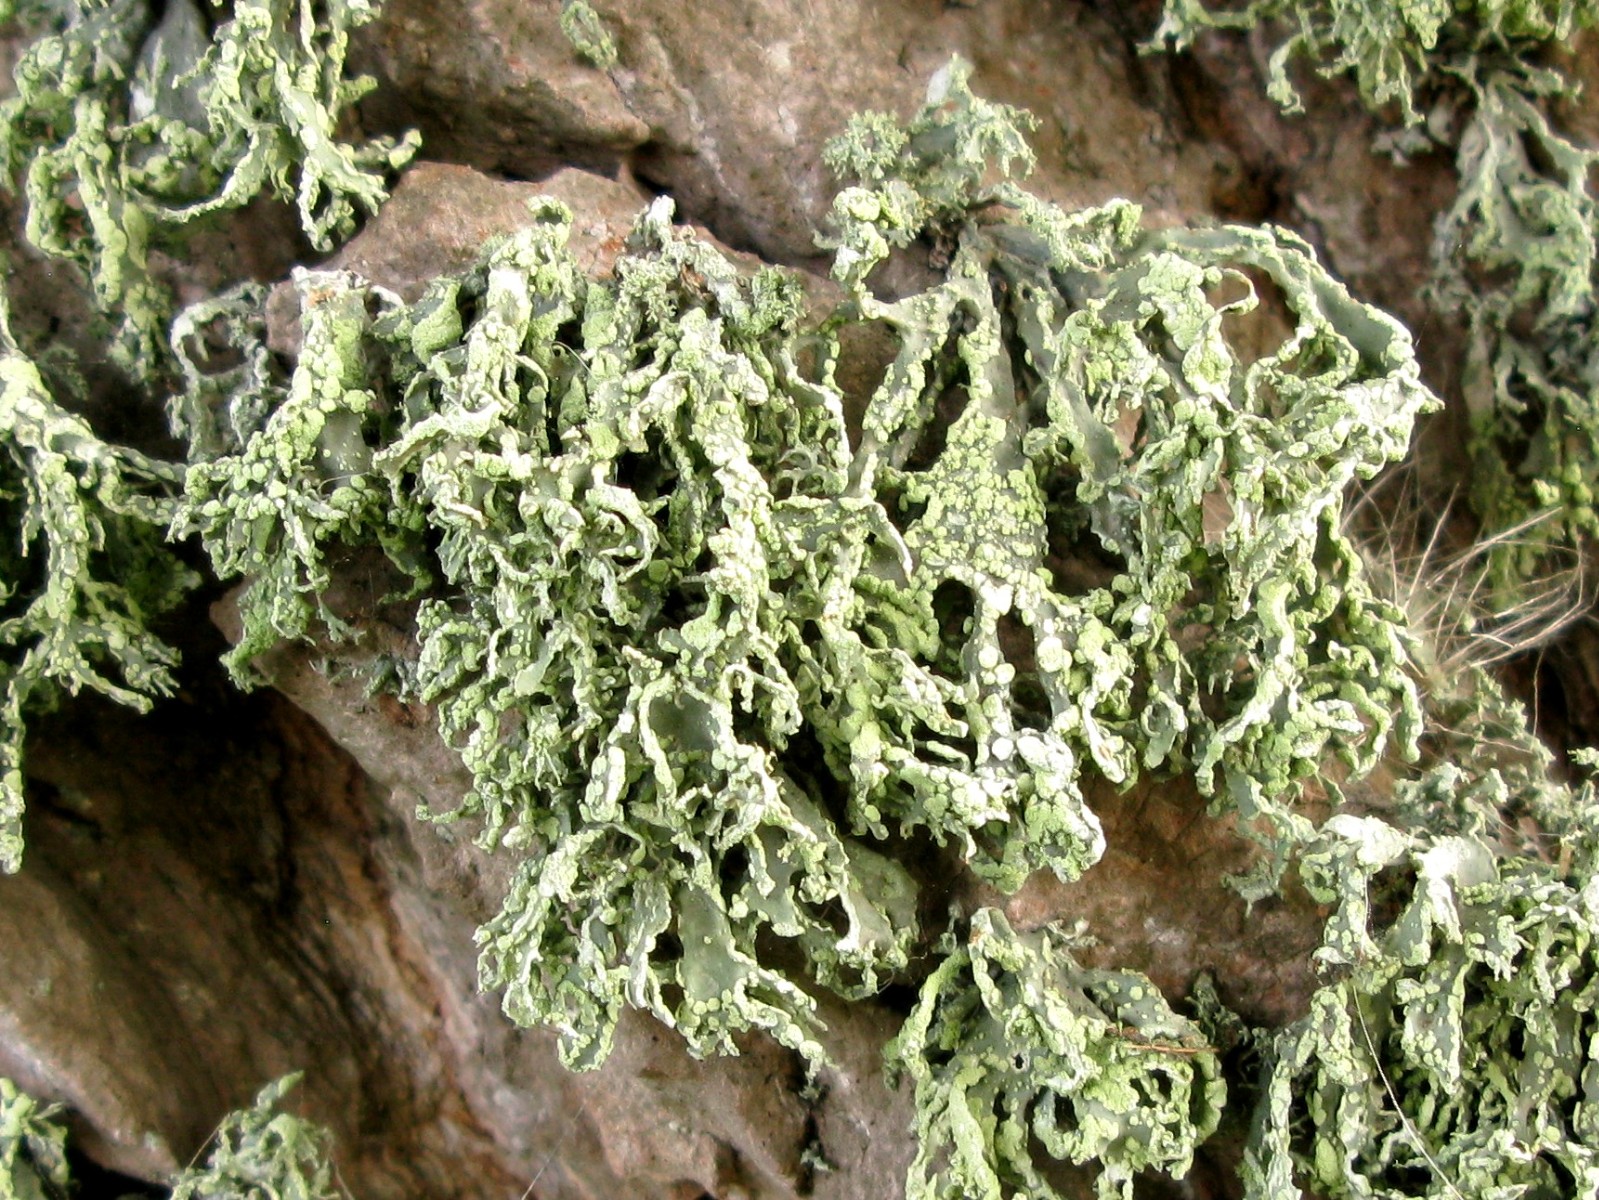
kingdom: Fungi
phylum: Ascomycota
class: Lecanoromycetes
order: Lecanorales
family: Ramalinaceae
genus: Ramalina
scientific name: Ramalina farinacea
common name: melet grenlav
